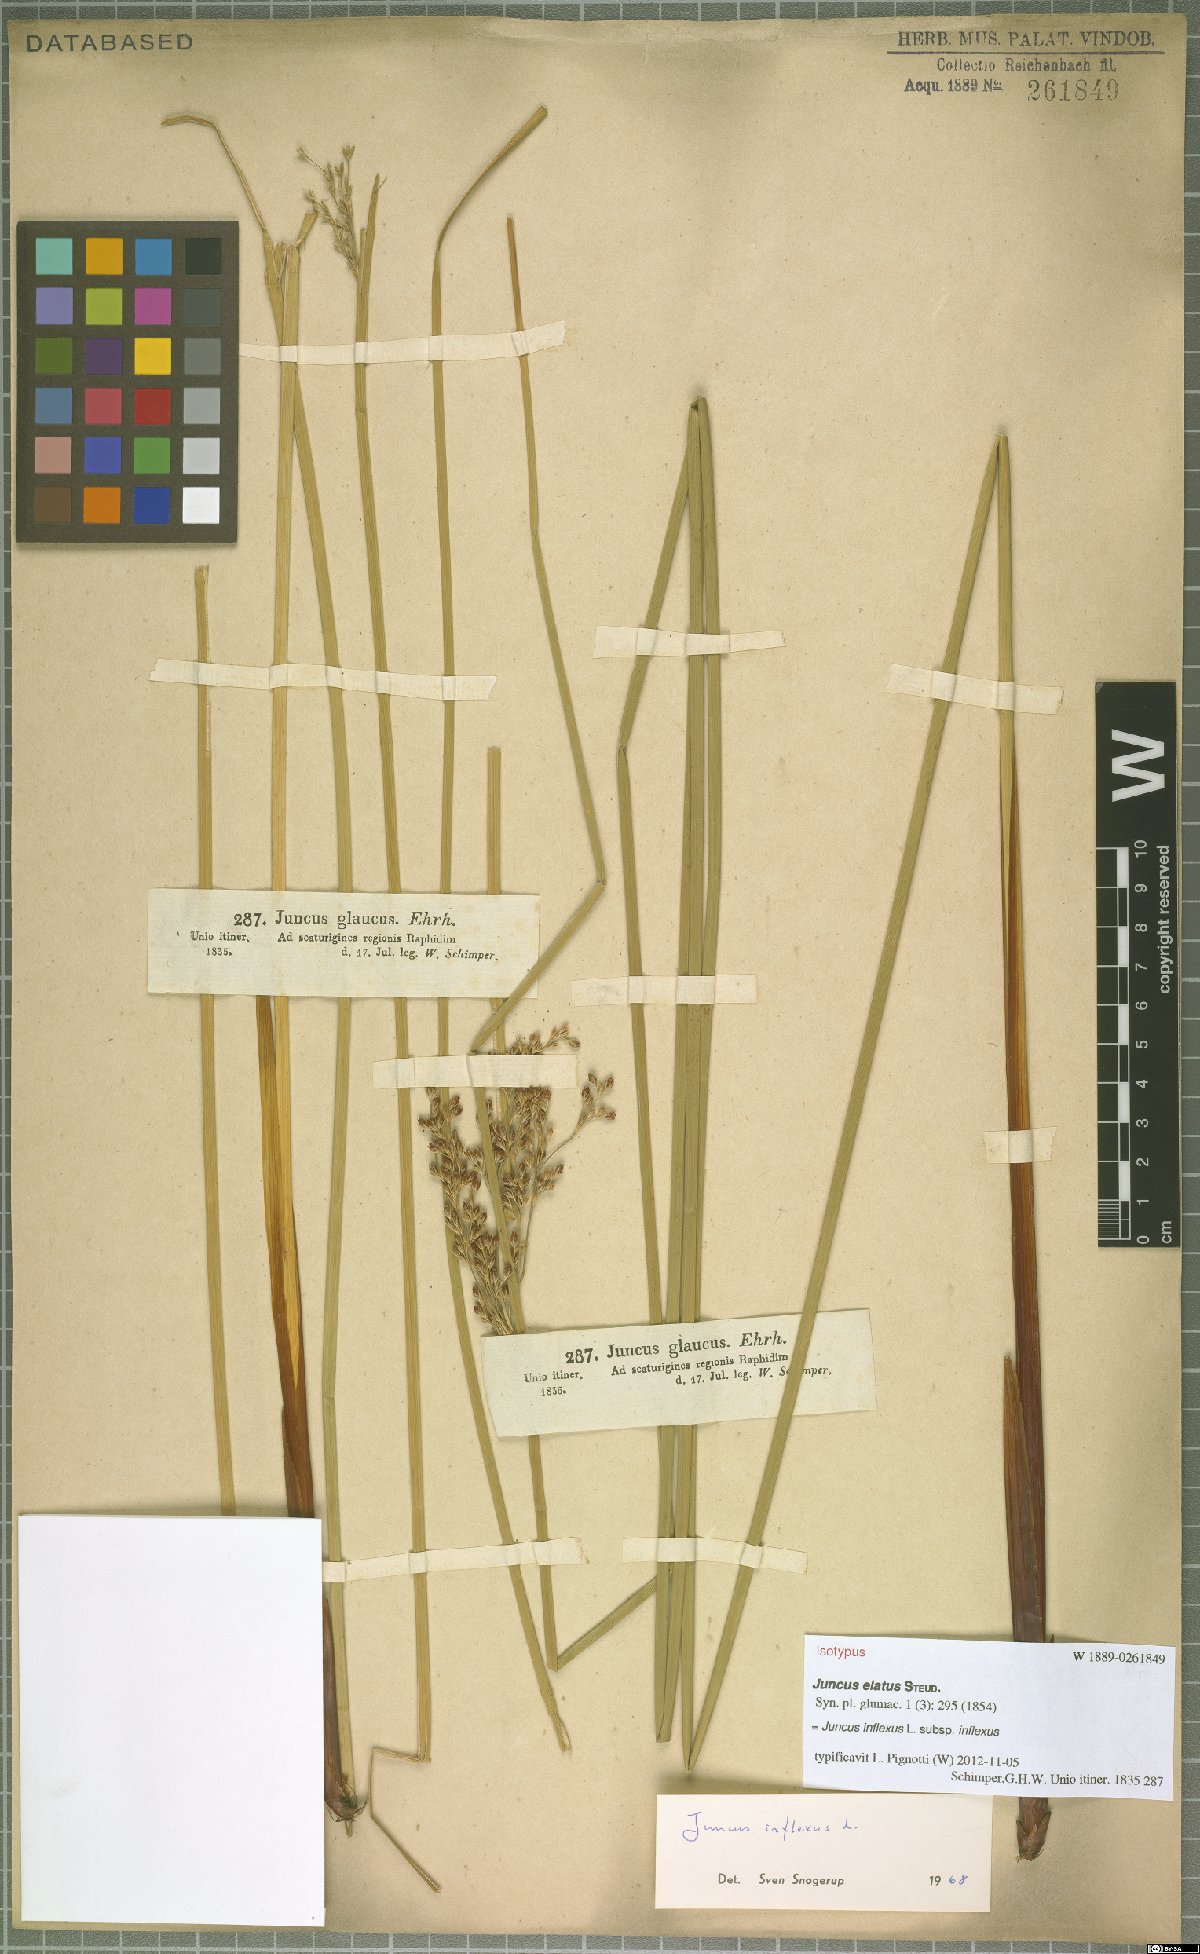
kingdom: Plantae
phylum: Tracheophyta
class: Liliopsida
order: Poales
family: Juncaceae
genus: Juncus
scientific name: Juncus inflexus
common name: Hard rush
